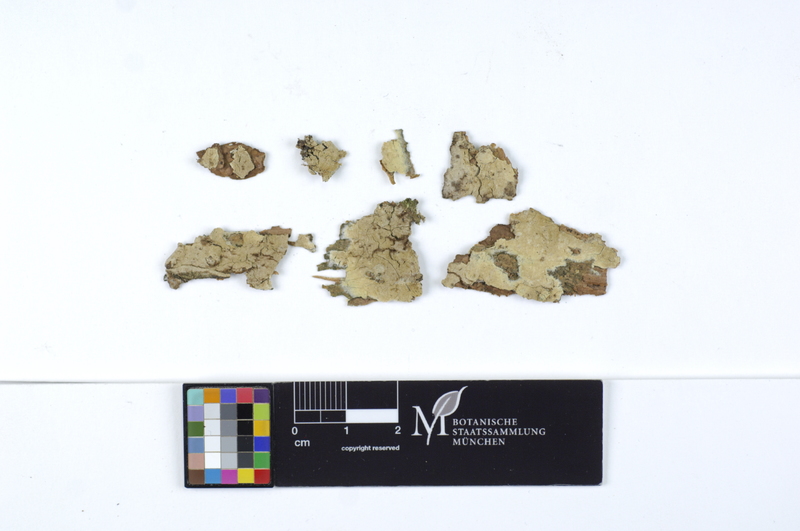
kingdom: Plantae
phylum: Tracheophyta
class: Pinopsida
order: Pinales
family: Pinaceae
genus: Picea
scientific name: Picea
